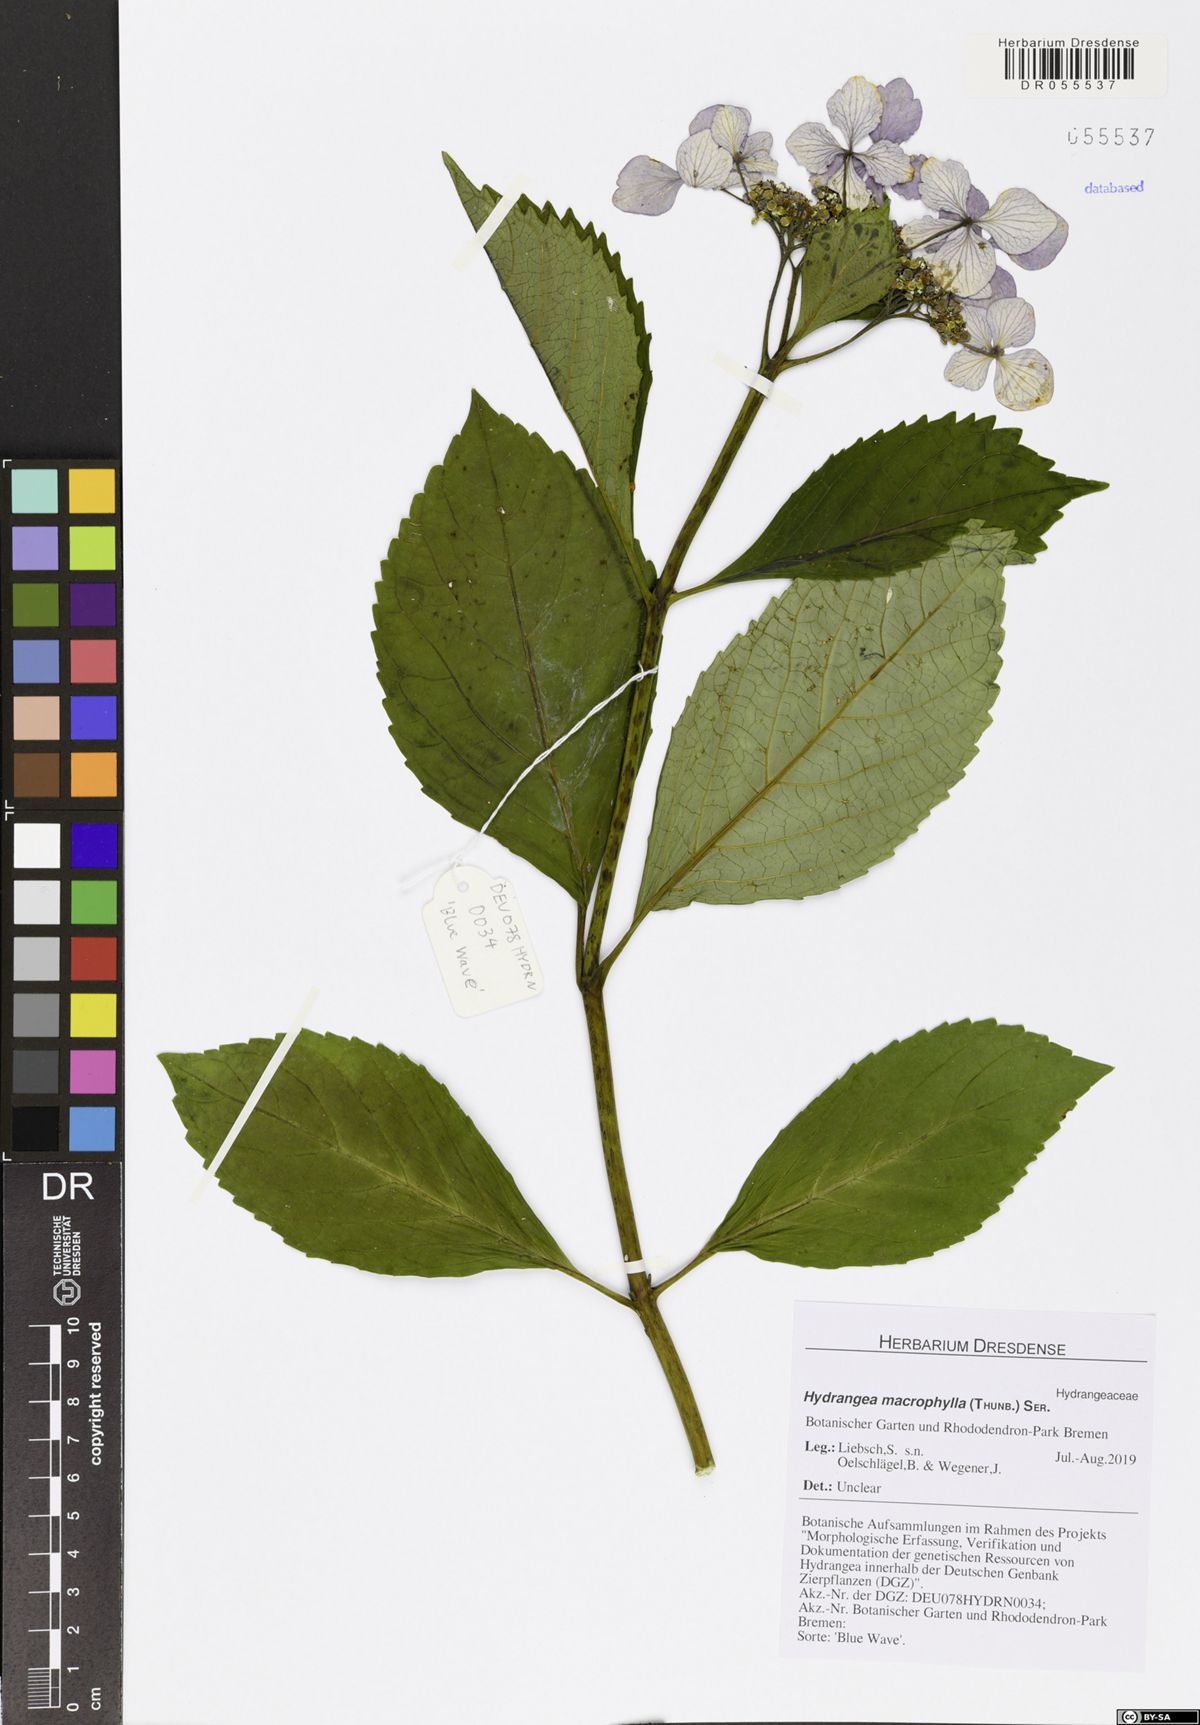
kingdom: Plantae
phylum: Tracheophyta
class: Magnoliopsida
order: Cornales
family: Hydrangeaceae
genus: Hydrangea
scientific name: Hydrangea macrophylla
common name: Hydrangea
